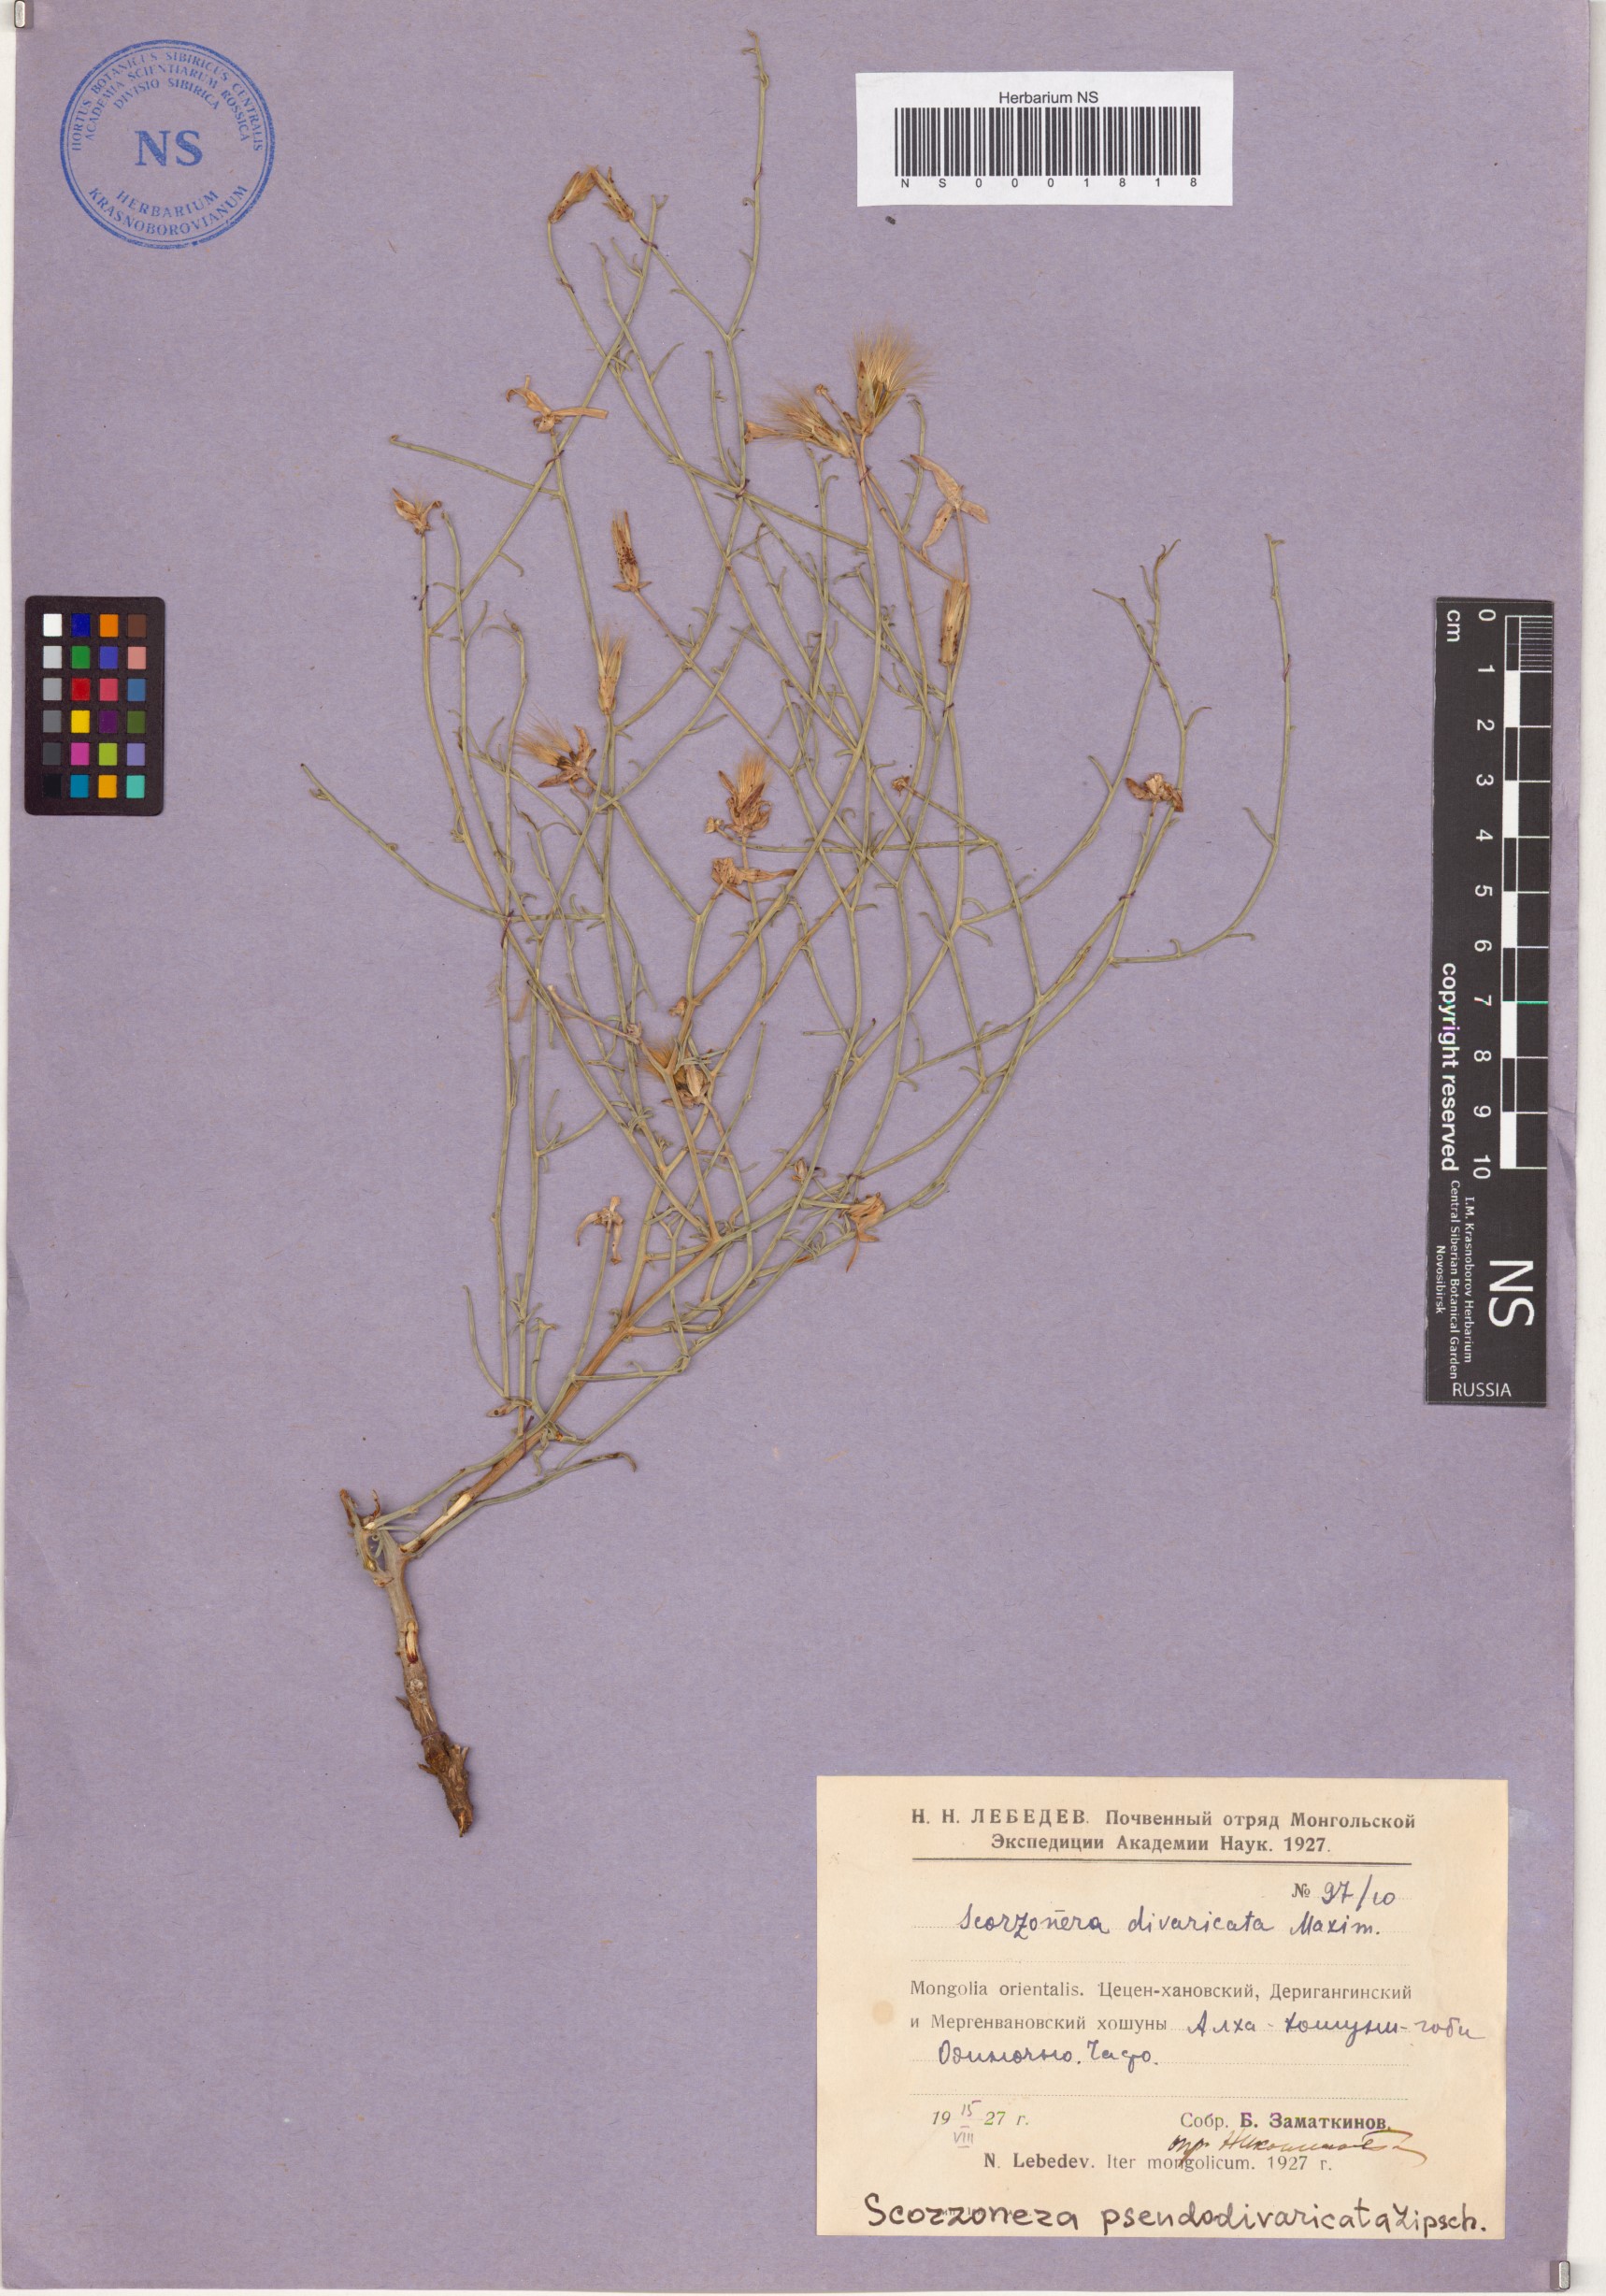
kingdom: Plantae
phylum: Tracheophyta
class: Magnoliopsida
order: Asterales
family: Asteraceae
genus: Takhtajaniantha
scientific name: Takhtajaniantha pseudodivaricata
